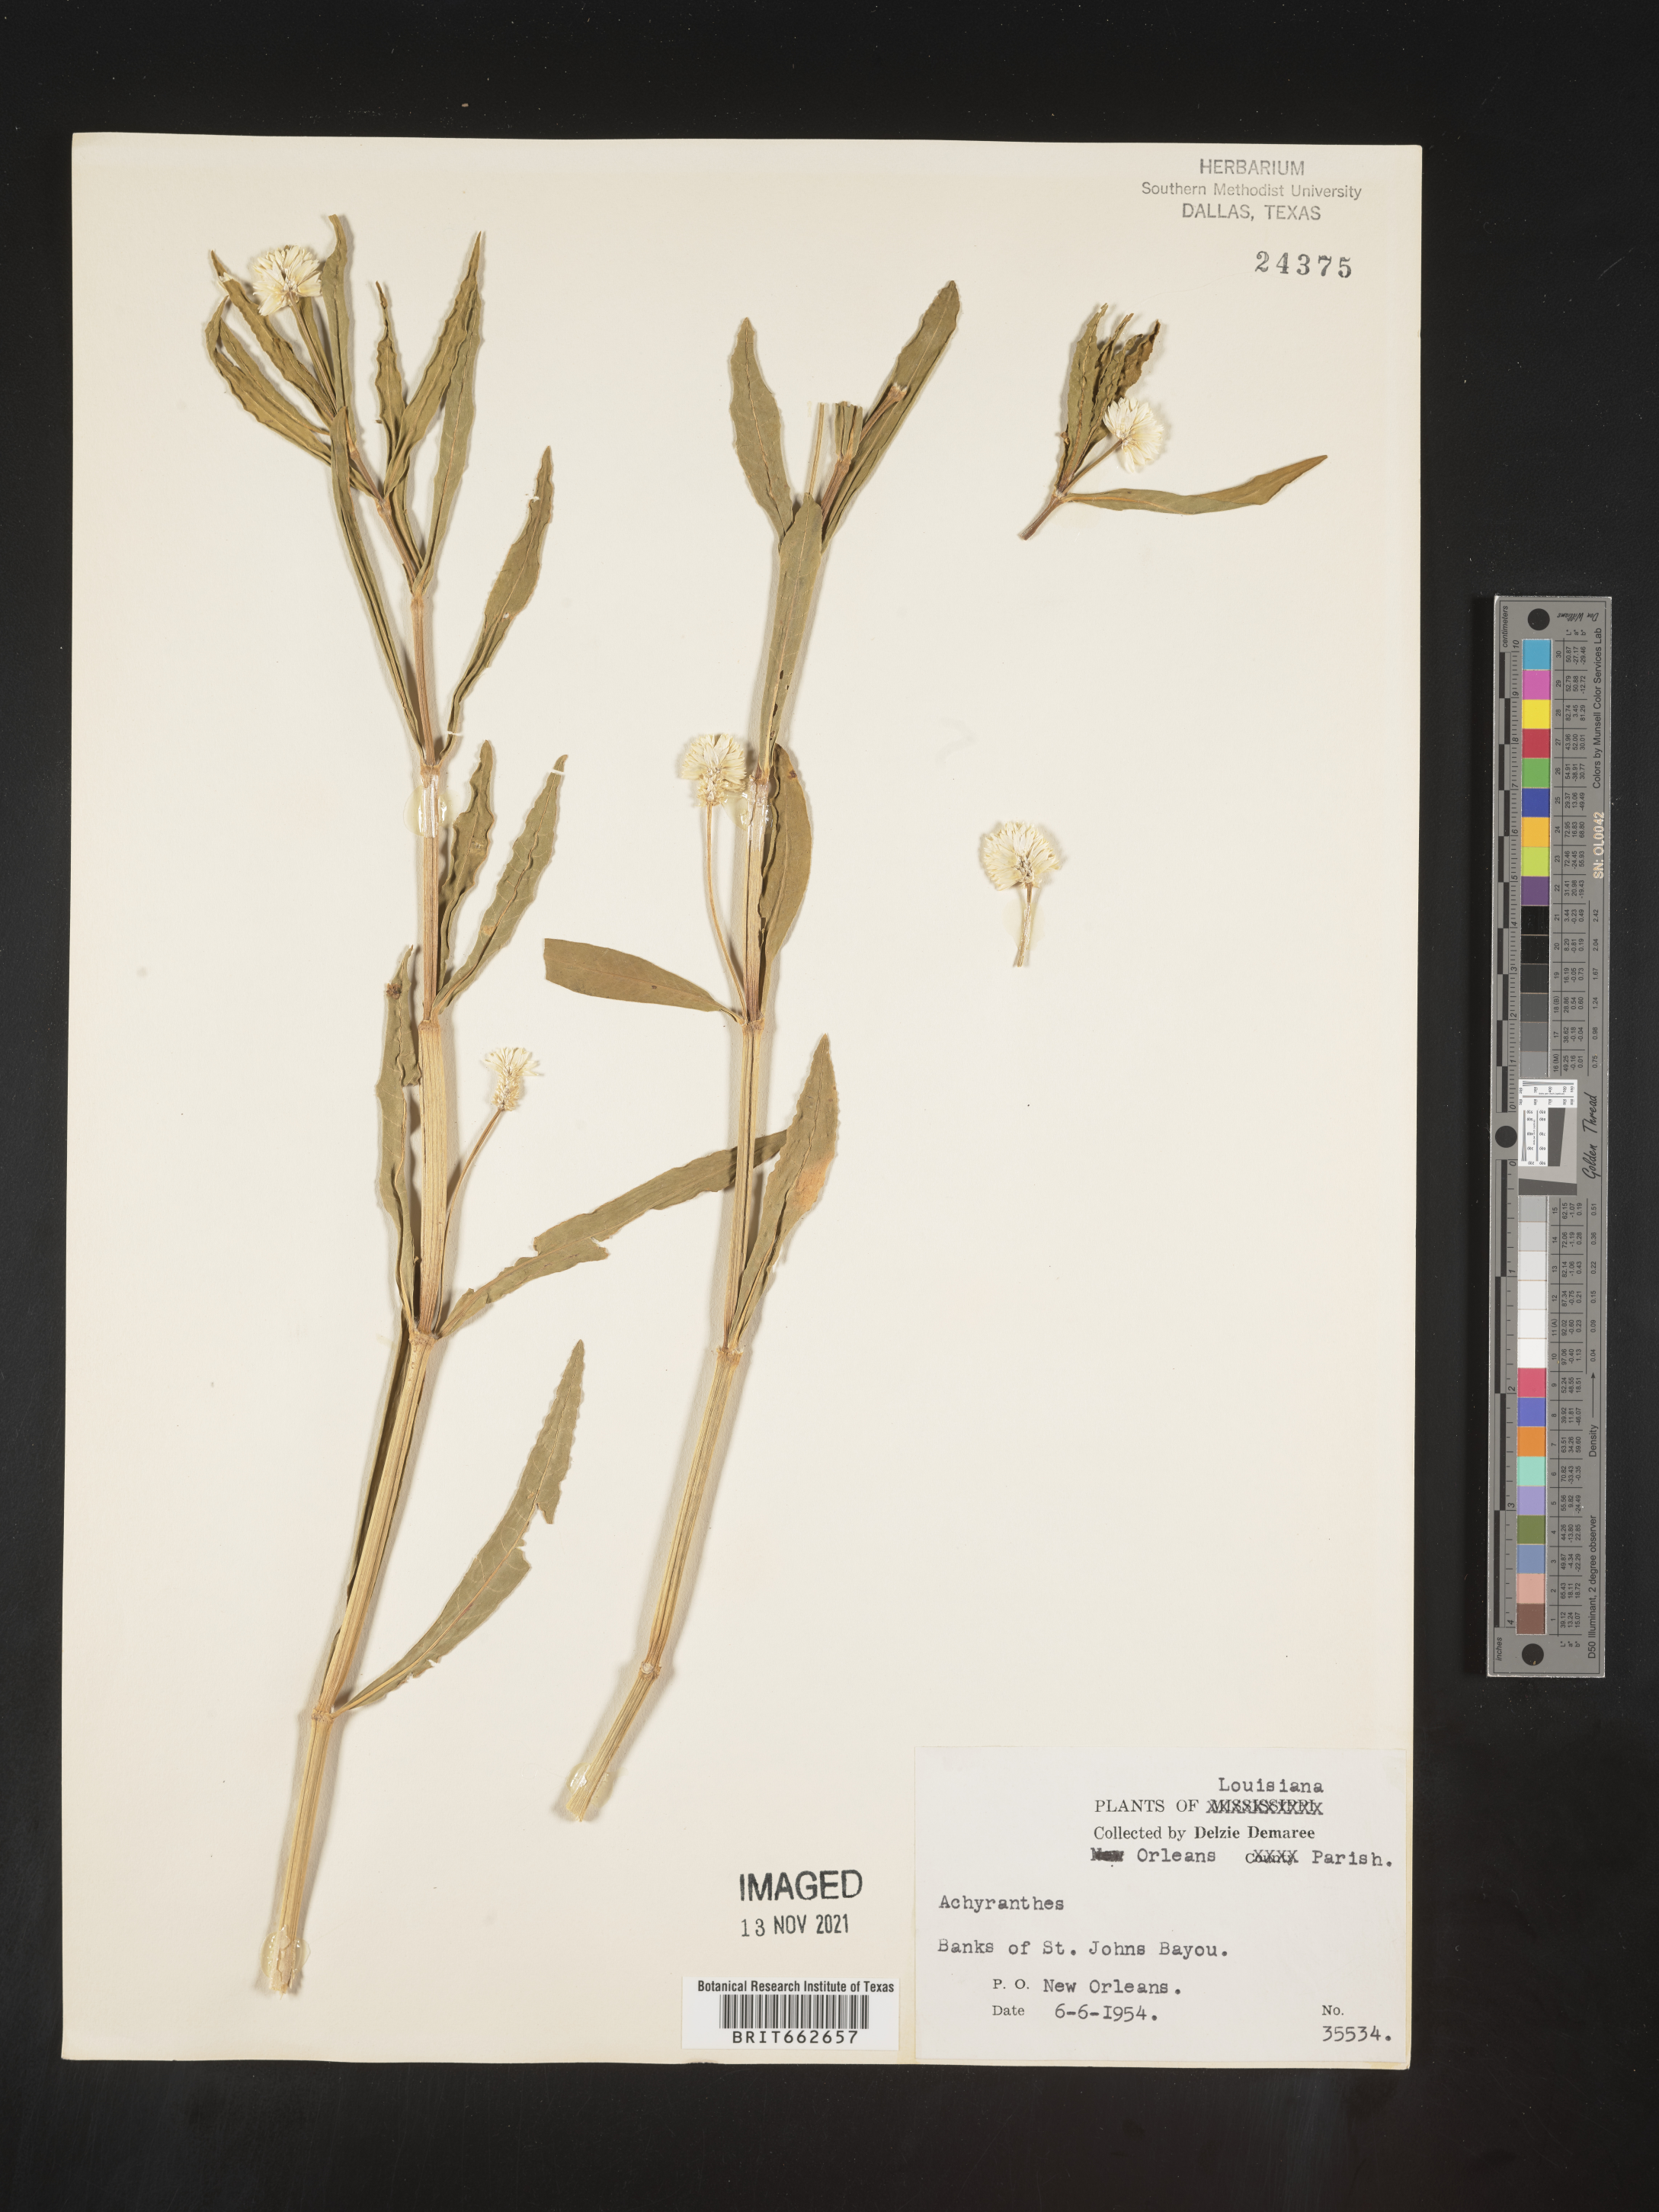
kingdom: Plantae
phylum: Tracheophyta
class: Magnoliopsida
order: Caryophyllales
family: Amaranthaceae
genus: Alternanthera
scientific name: Alternanthera philoxeroides
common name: Alligatorweed
